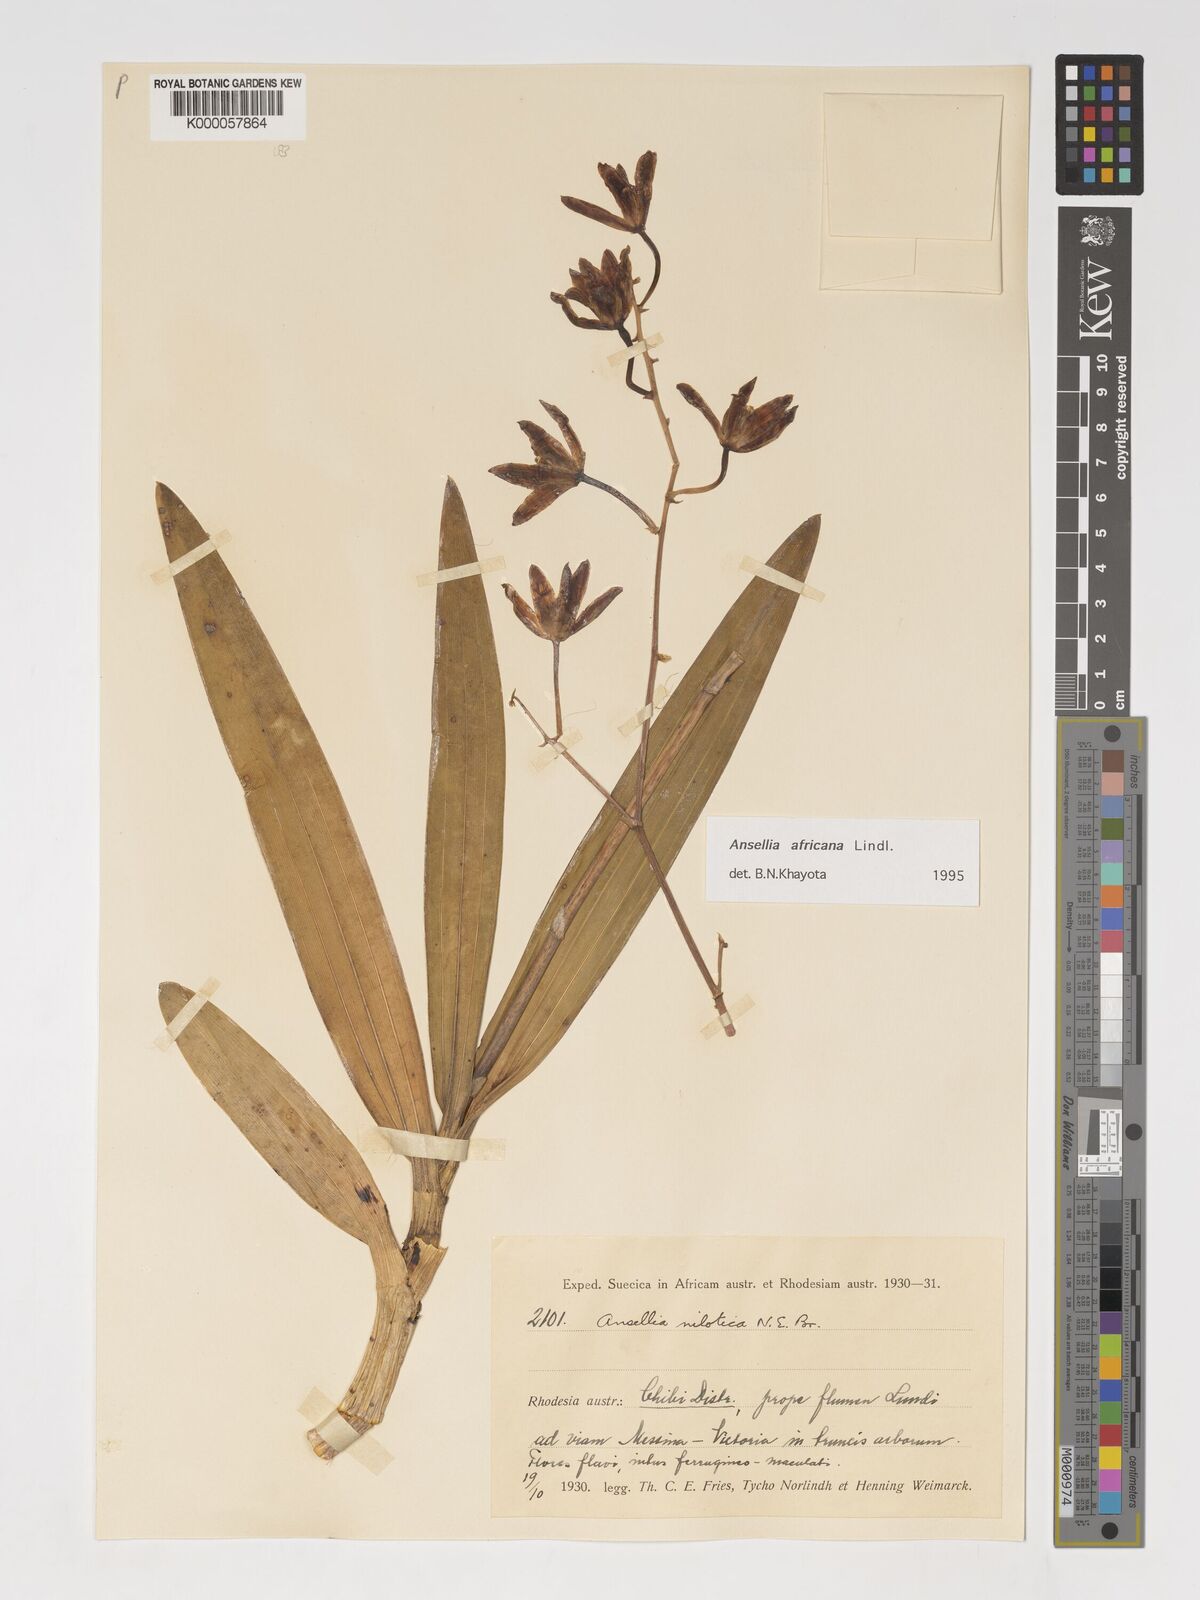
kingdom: Plantae
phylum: Tracheophyta
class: Liliopsida
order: Asparagales
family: Orchidaceae
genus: Ansellia
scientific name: Ansellia africana
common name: African ansellia
